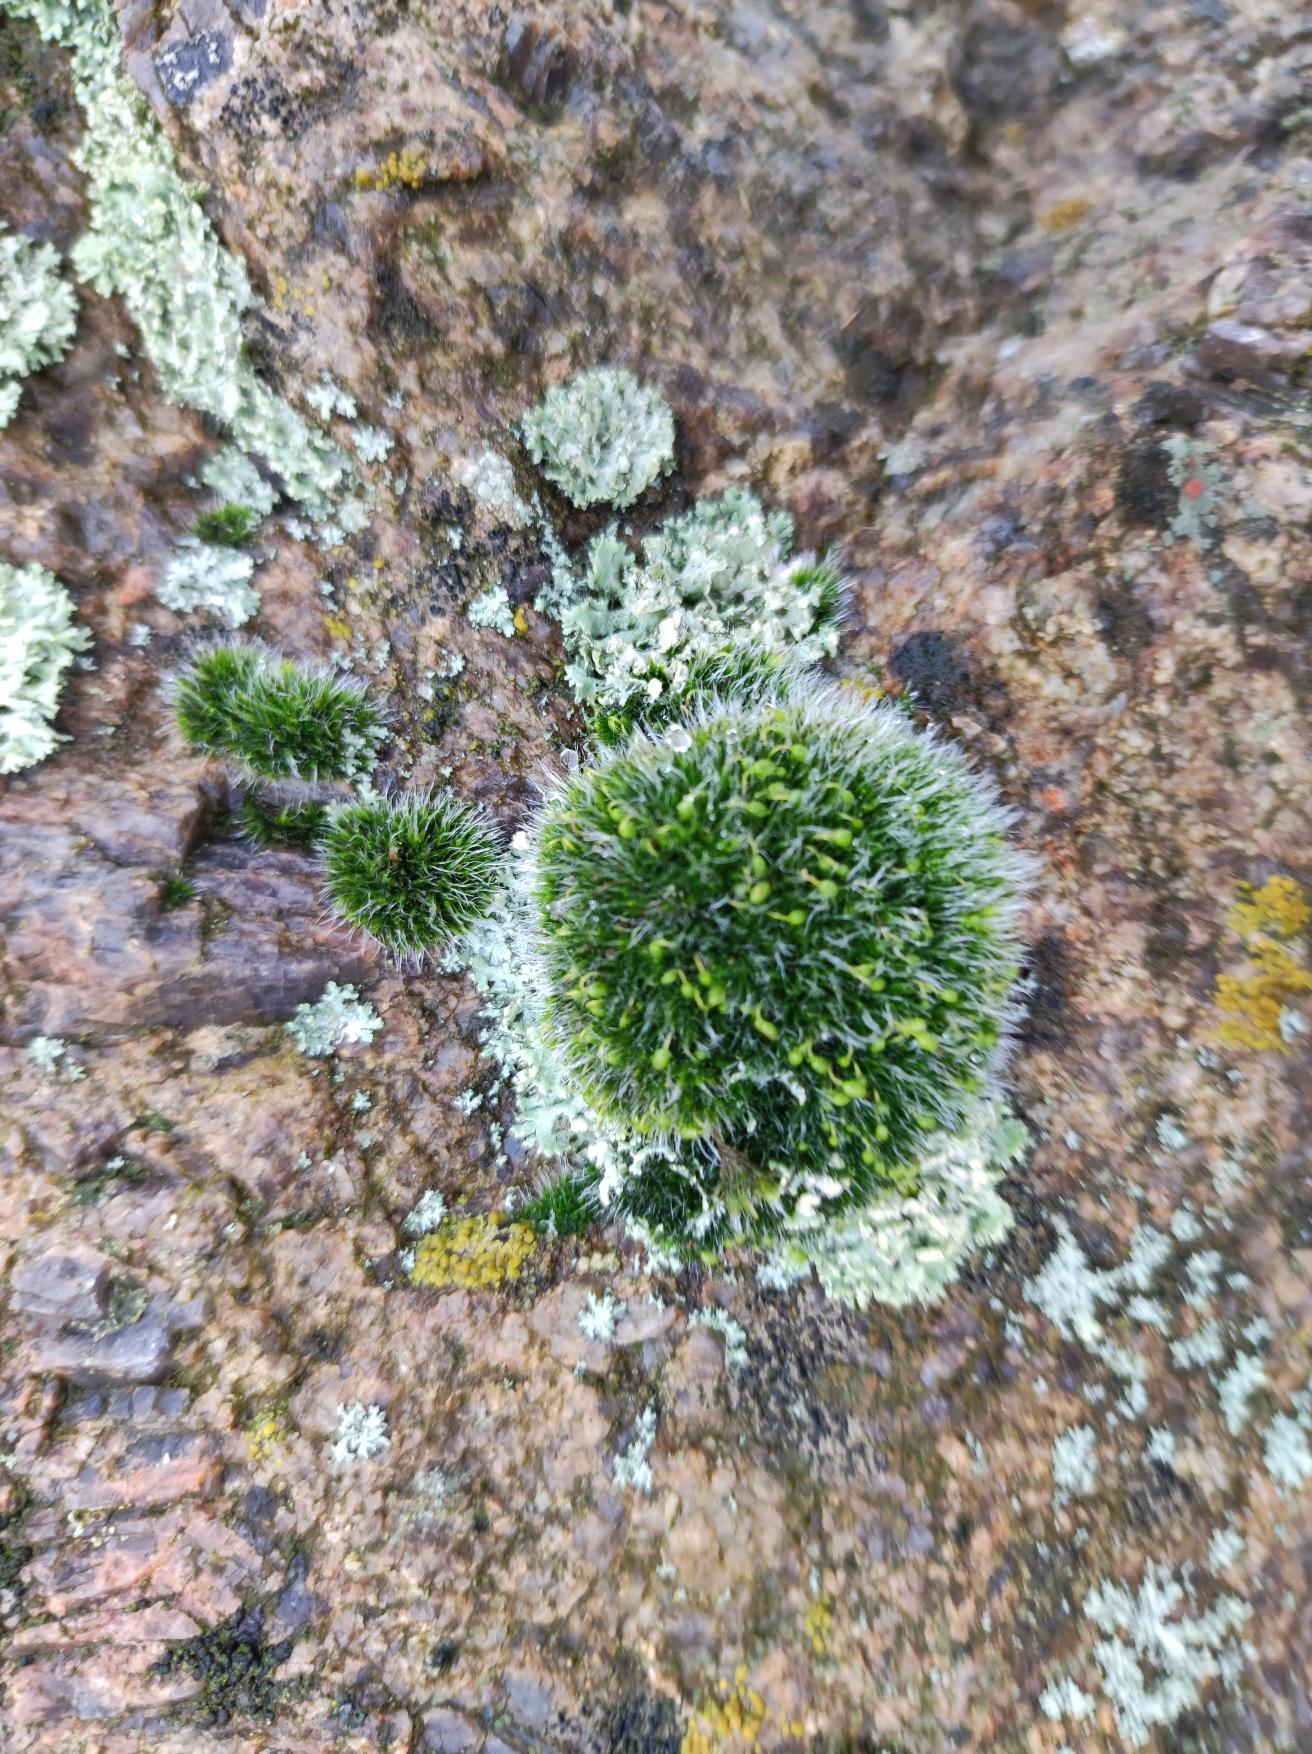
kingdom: Plantae
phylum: Bryophyta
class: Bryopsida
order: Grimmiales
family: Grimmiaceae
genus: Grimmia
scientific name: Grimmia pulvinata
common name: Pude-gråmos
